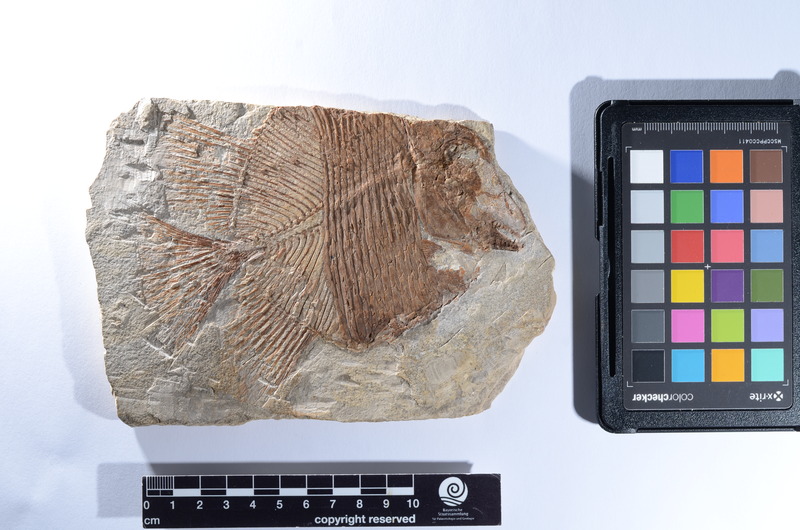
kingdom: Animalia
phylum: Chordata
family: Pycnodontes
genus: Macromesodon
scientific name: Macromesodon macropterus
